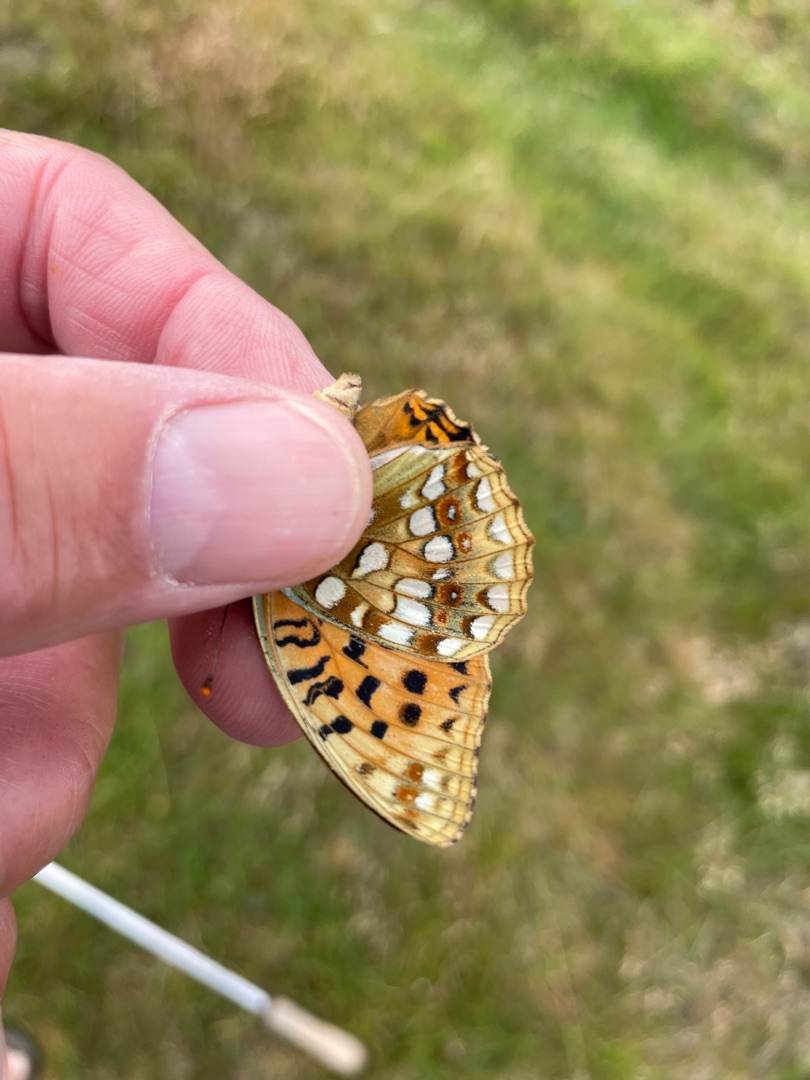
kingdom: Animalia
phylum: Arthropoda
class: Insecta
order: Lepidoptera
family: Nymphalidae
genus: Fabriciana
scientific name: Fabriciana adippe
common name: Skovperlemorsommerfugl
